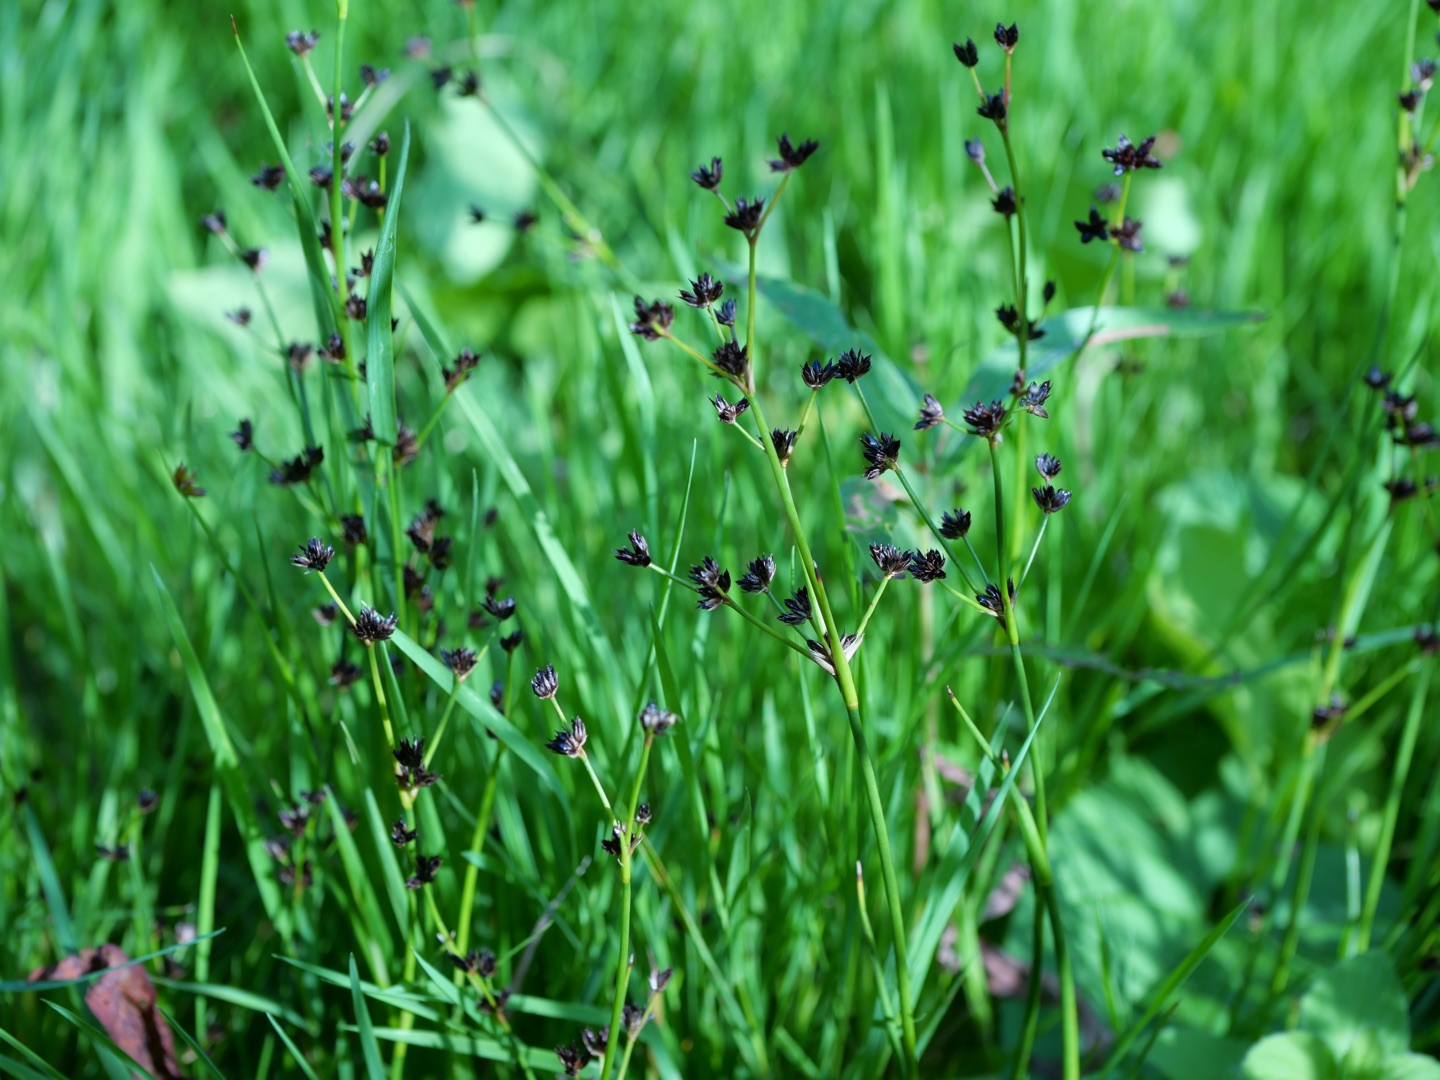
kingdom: Plantae
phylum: Tracheophyta
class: Liliopsida
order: Poales
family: Juncaceae
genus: Juncus
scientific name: Juncus articulatus
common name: Glanskapslet siv
